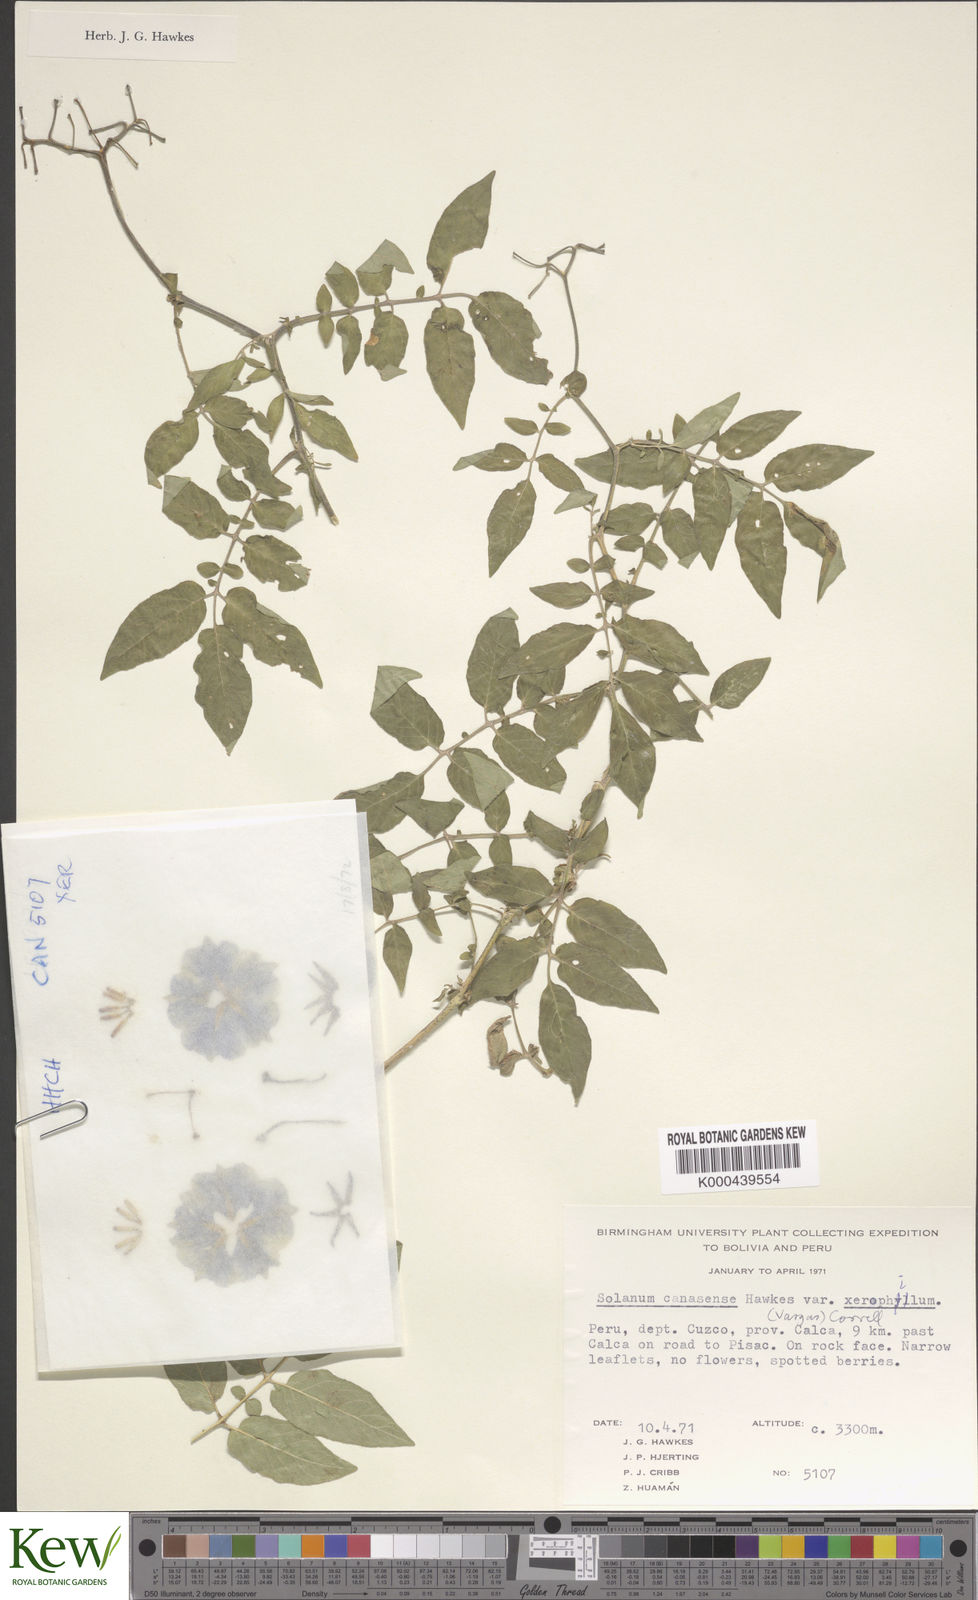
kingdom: Plantae
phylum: Tracheophyta
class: Magnoliopsida
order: Solanales
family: Solanaceae
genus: Solanum
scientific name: Solanum candolleanum
